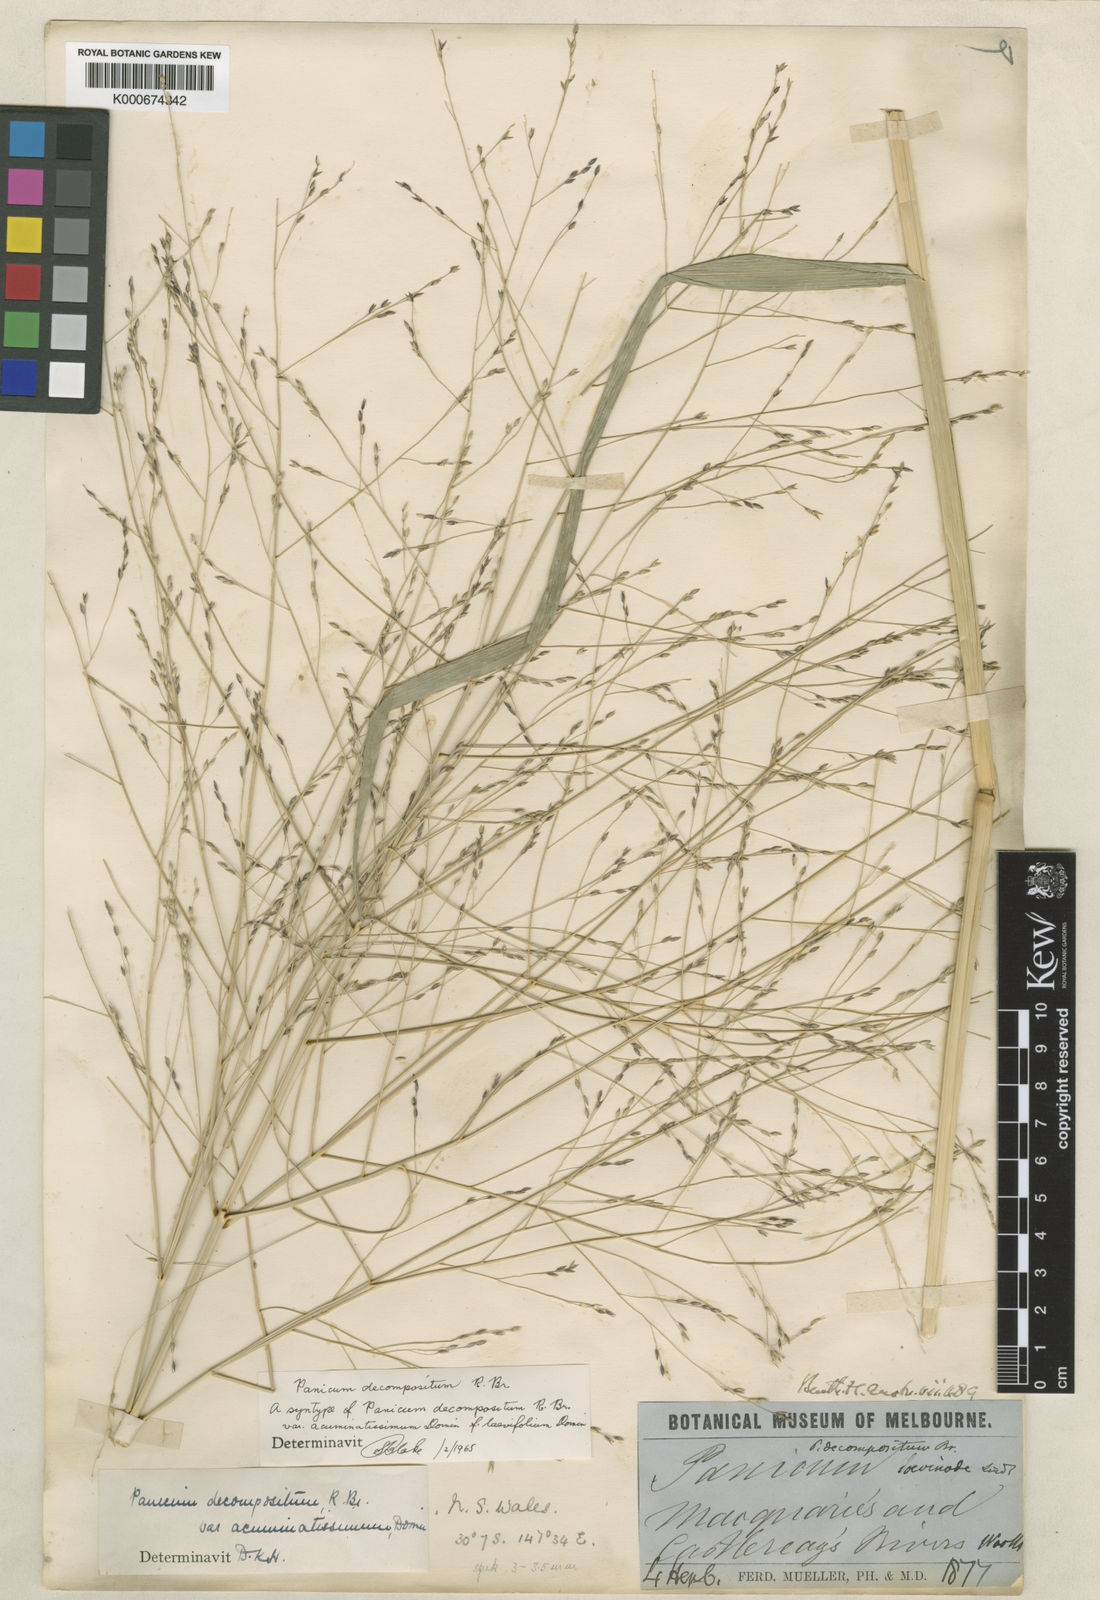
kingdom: Plantae
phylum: Tracheophyta
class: Liliopsida
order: Poales
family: Poaceae
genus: Panicum
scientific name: Panicum decompositum
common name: Australian millet
